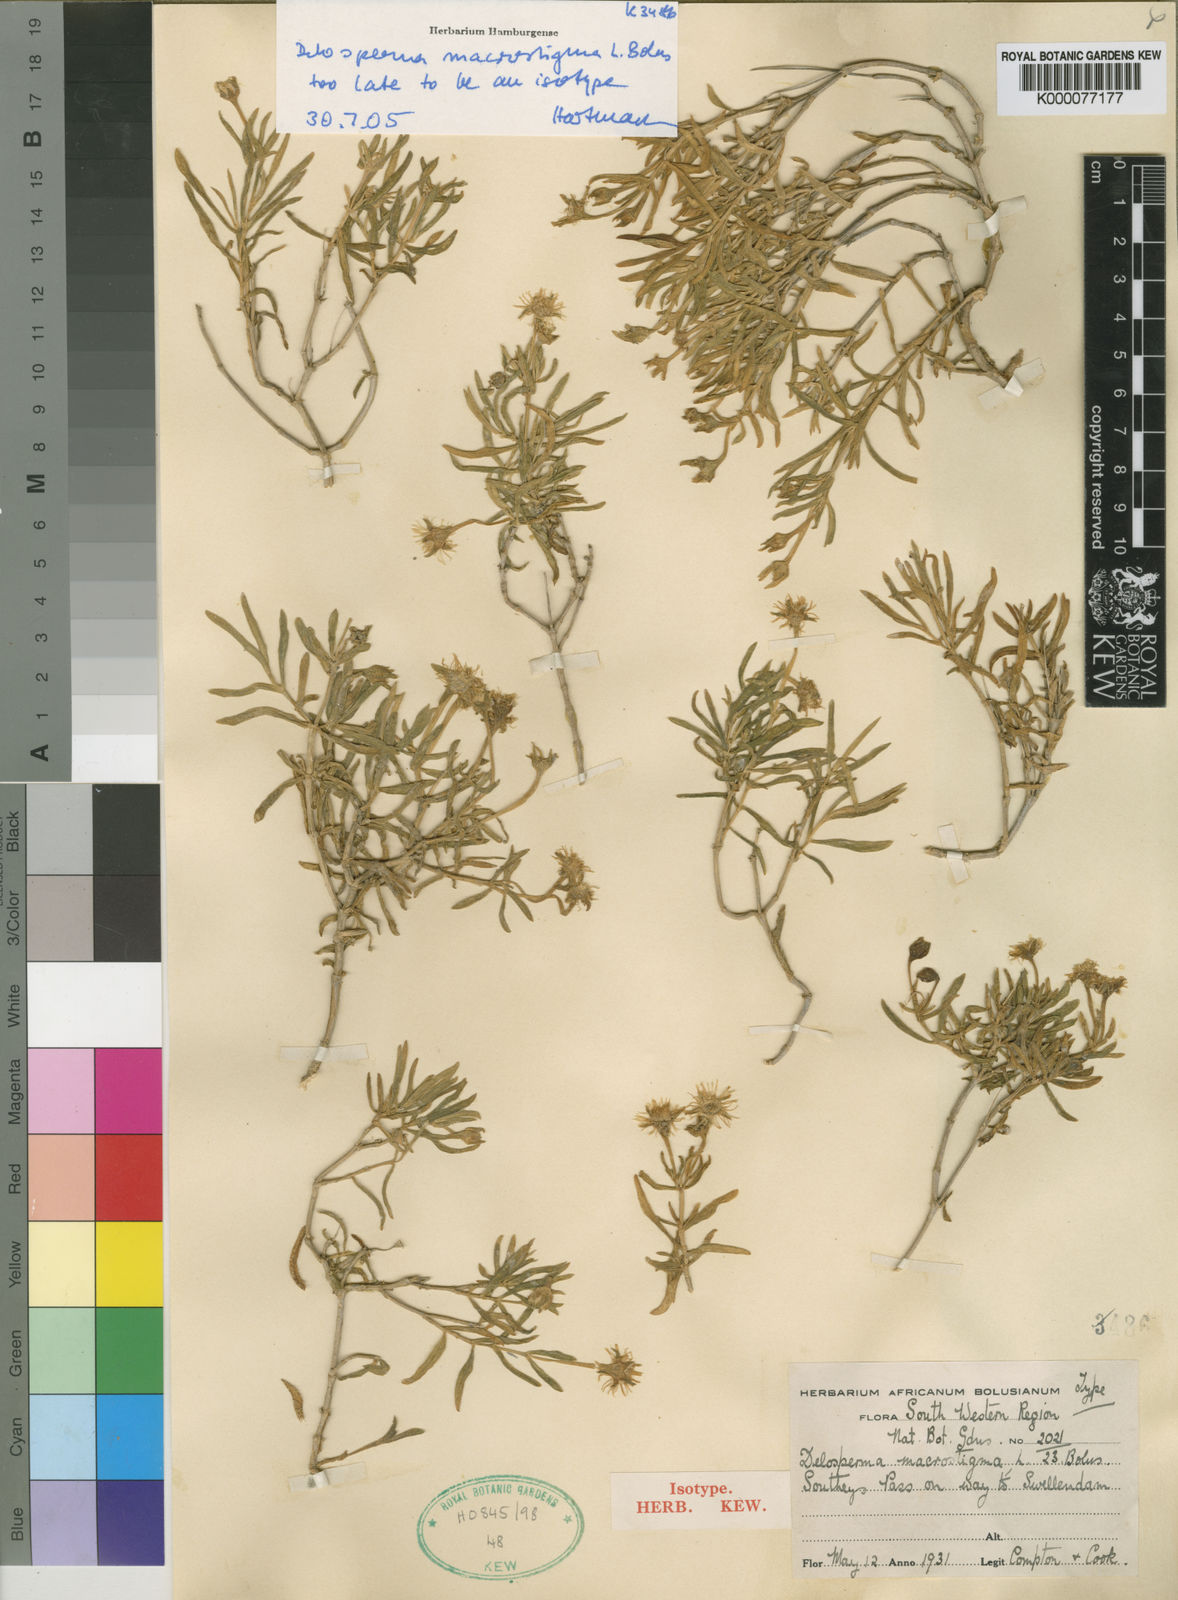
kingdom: Plantae
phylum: Tracheophyta
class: Magnoliopsida
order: Caryophyllales
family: Aizoaceae
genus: Delosperma
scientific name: Delosperma macrostigma
